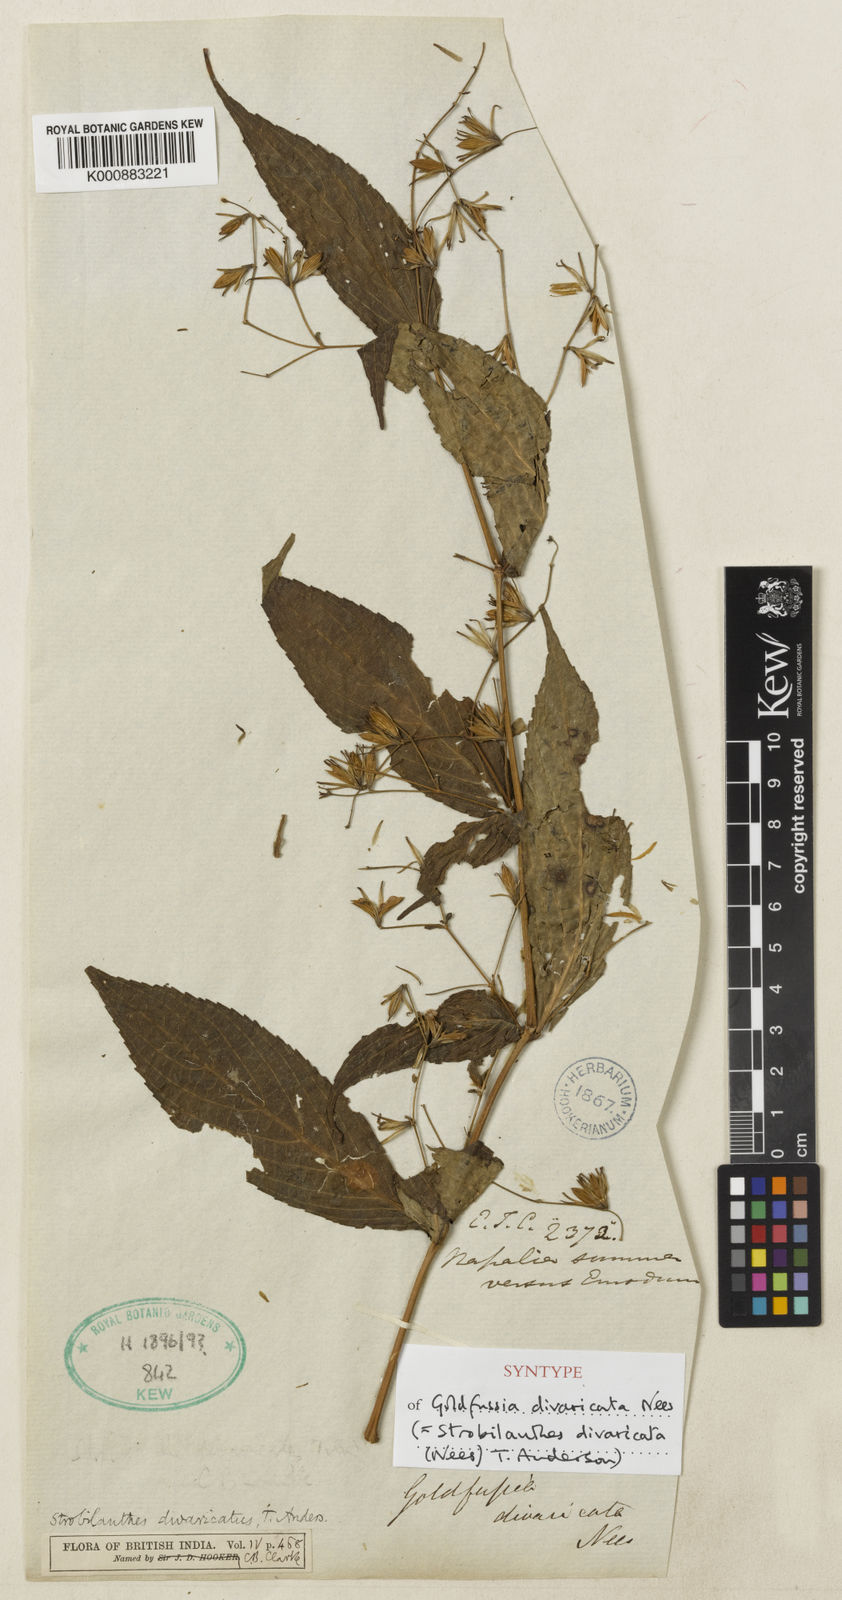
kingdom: Plantae
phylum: Tracheophyta
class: Magnoliopsida
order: Lamiales
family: Acanthaceae
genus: Strobilanthes
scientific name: Strobilanthes divaricata
